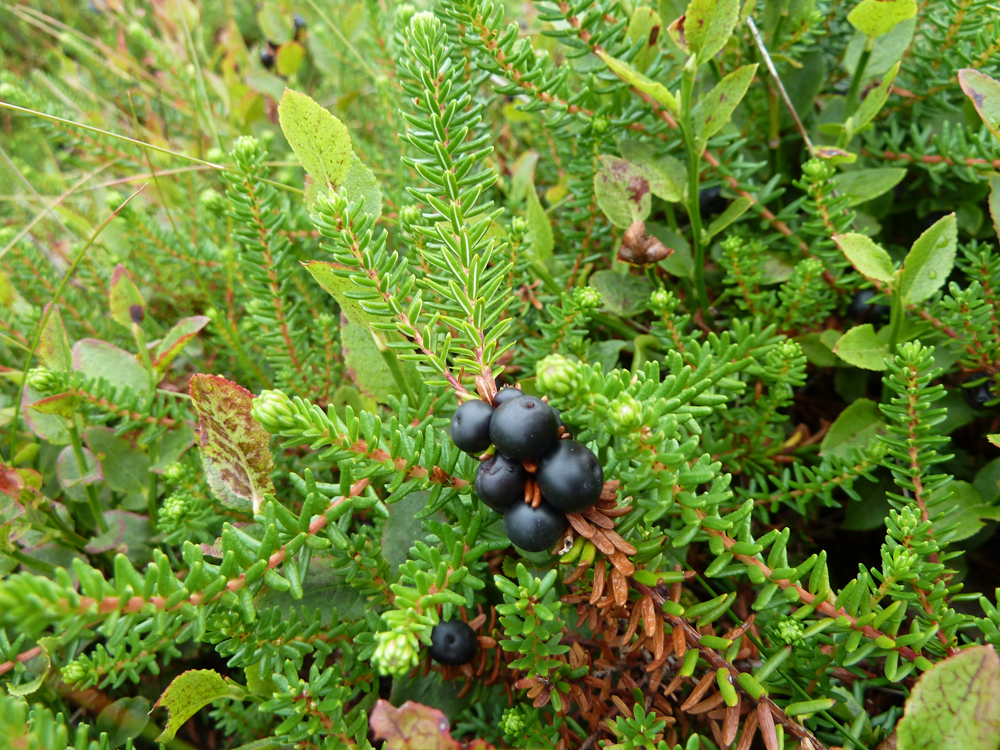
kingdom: Plantae
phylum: Tracheophyta
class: Magnoliopsida
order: Ericales
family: Ericaceae
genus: Empetrum
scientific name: Empetrum nigrum
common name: Black crowberry
